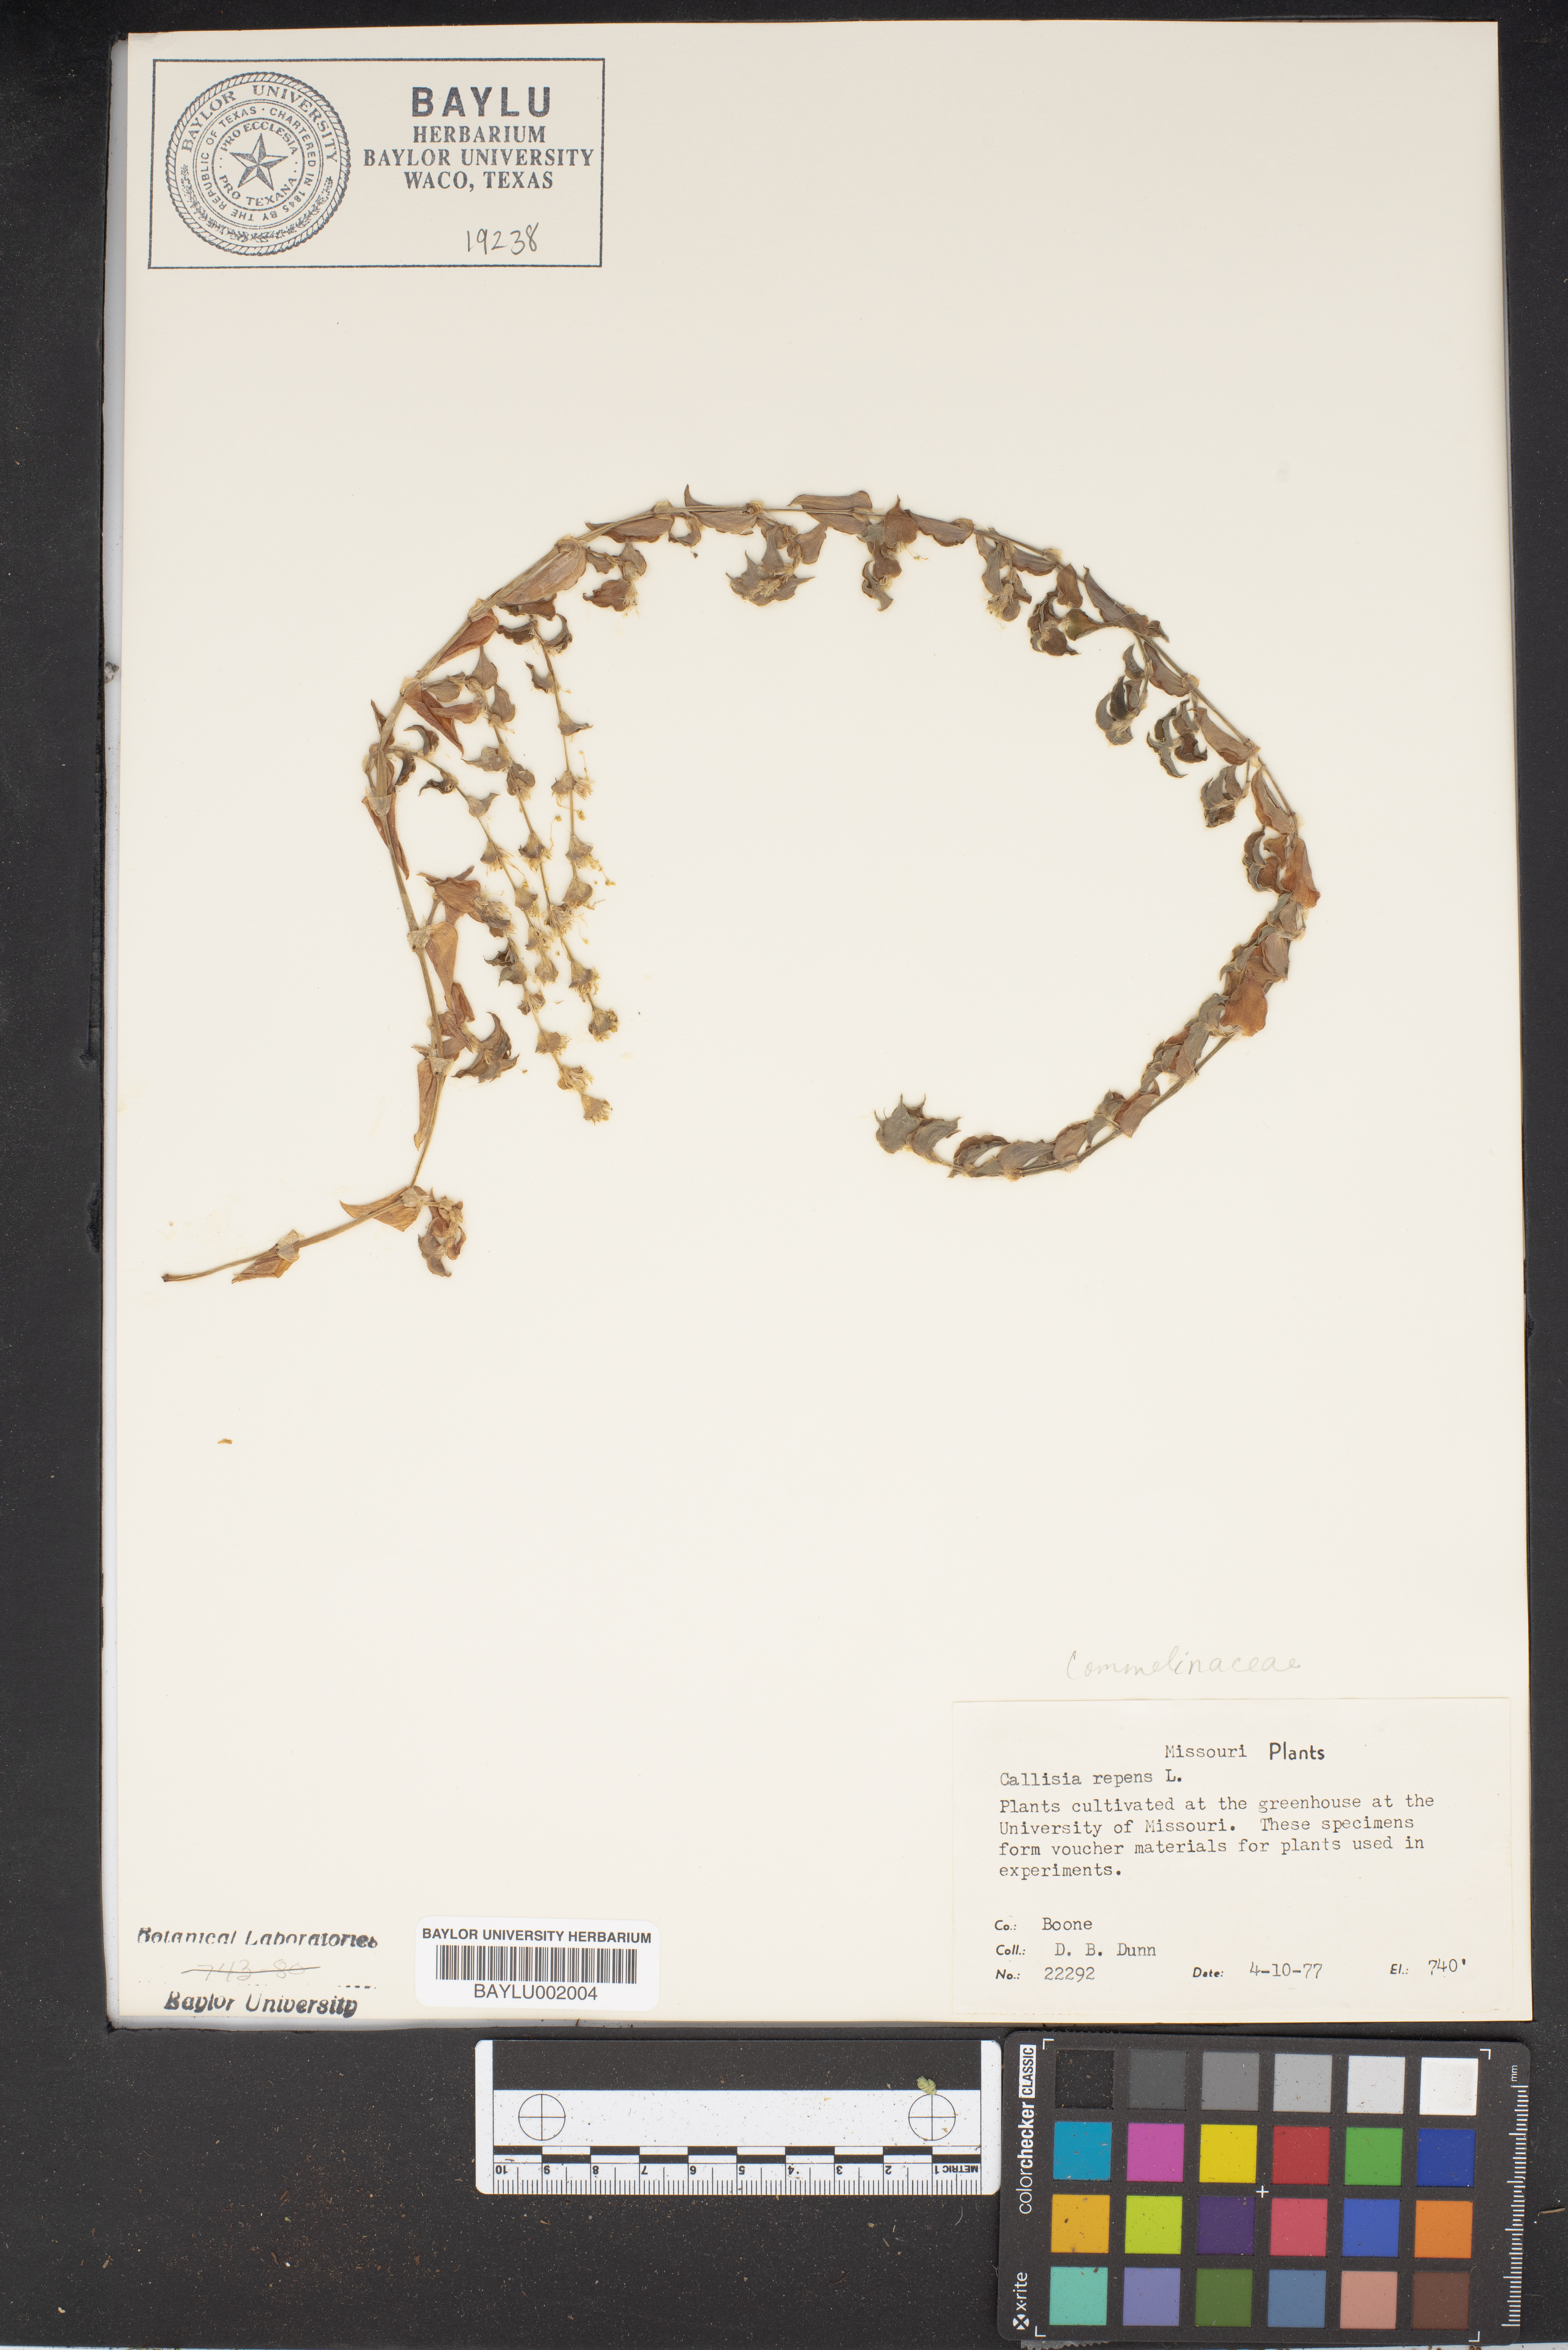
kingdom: Plantae
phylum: Tracheophyta
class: Liliopsida
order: Commelinales
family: Commelinaceae
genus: Callisia
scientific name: Callisia repens
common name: Creeping inchplant
